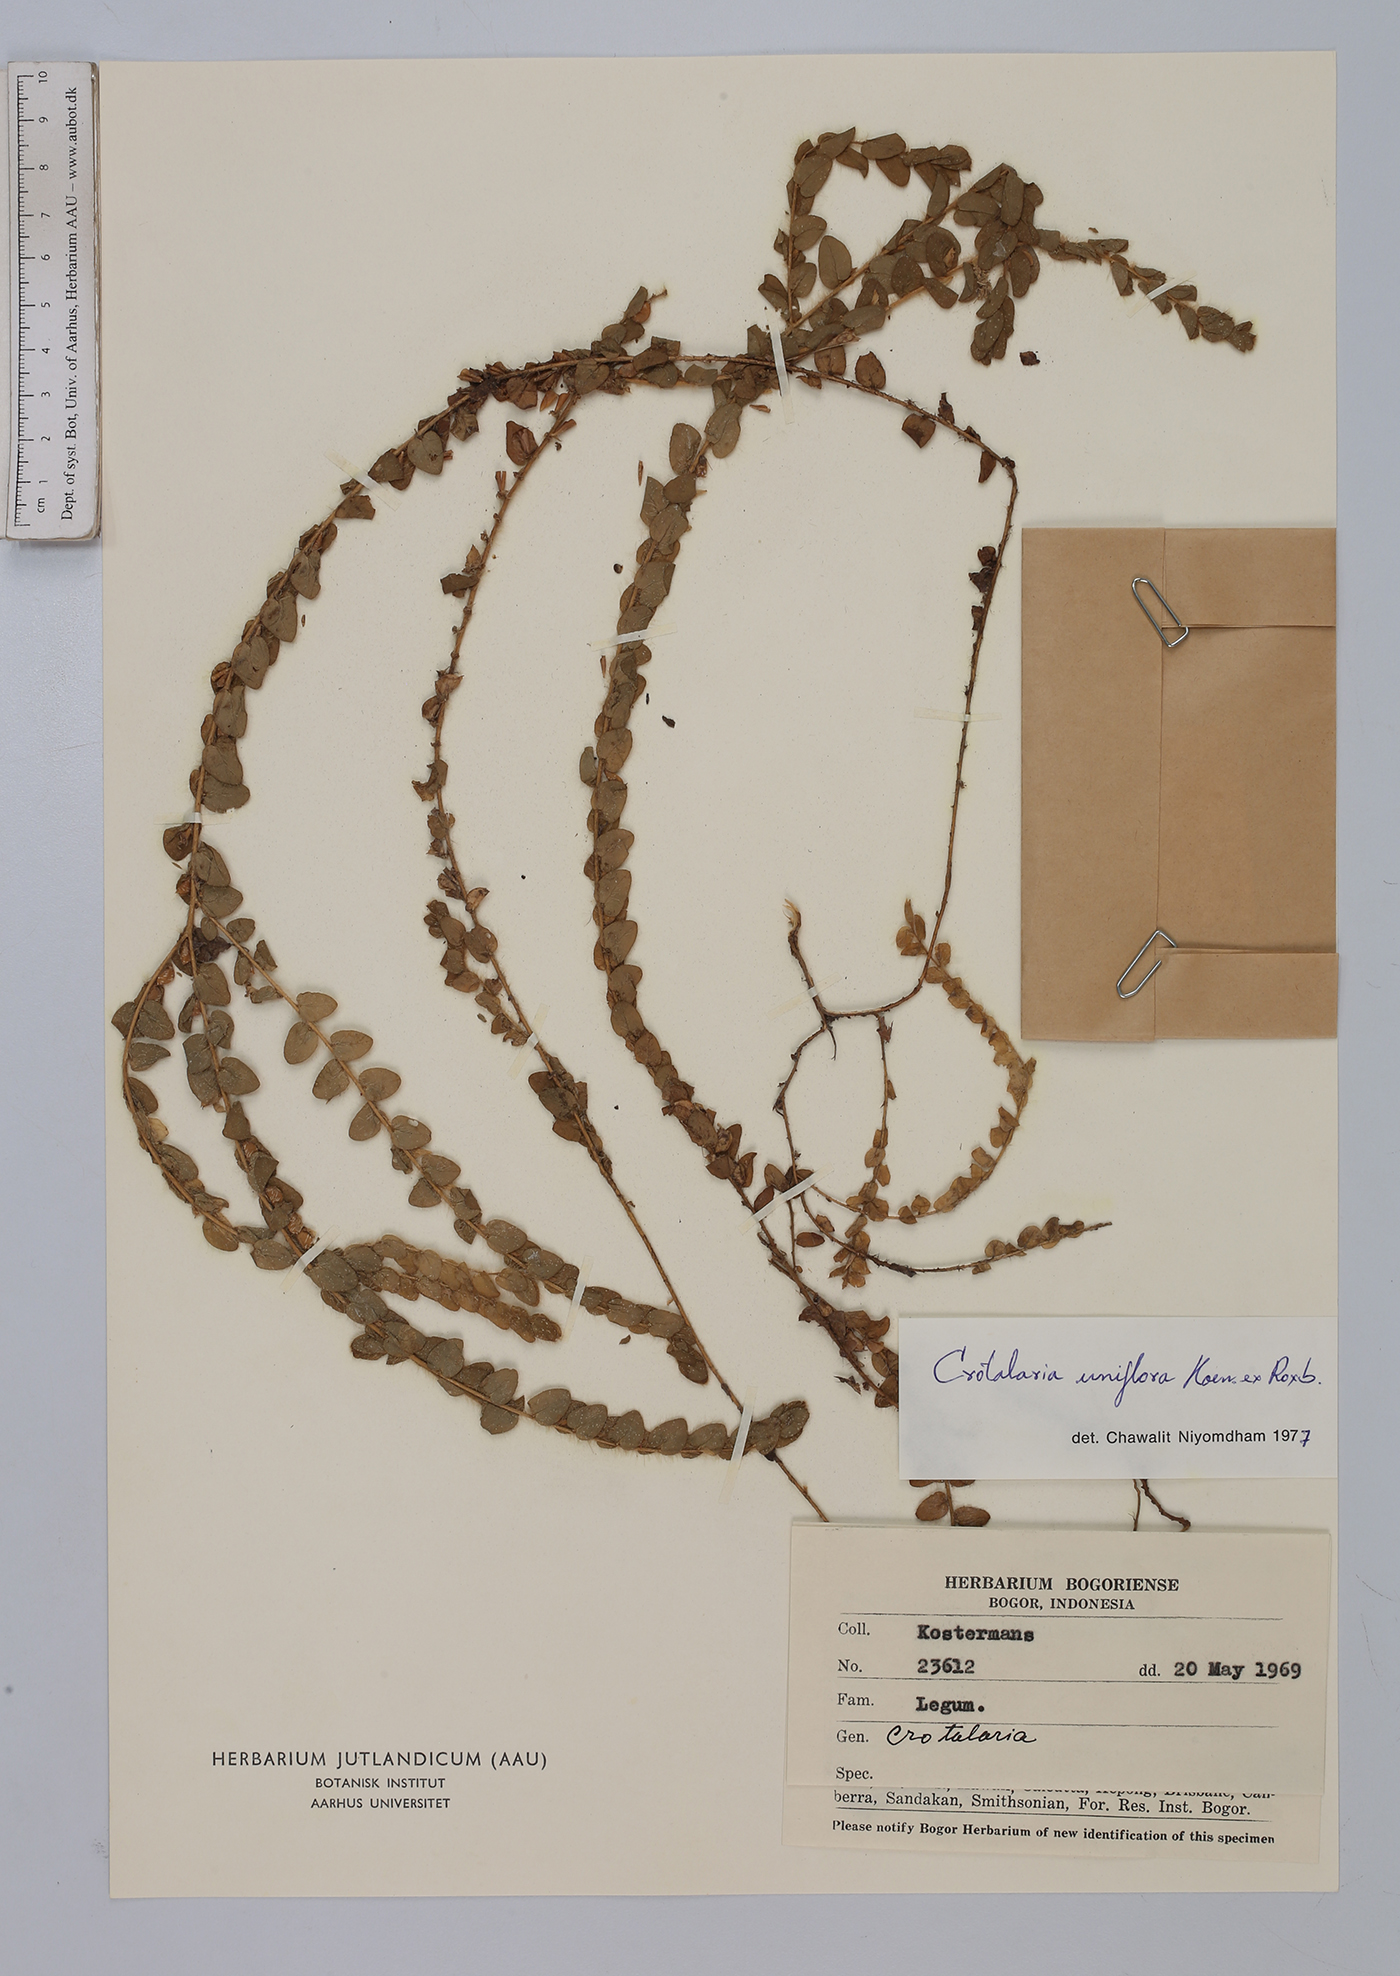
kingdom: Plantae
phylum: Tracheophyta
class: Magnoliopsida
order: Fabales
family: Fabaceae
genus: Crotalaria
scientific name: Crotalaria occidentalis
